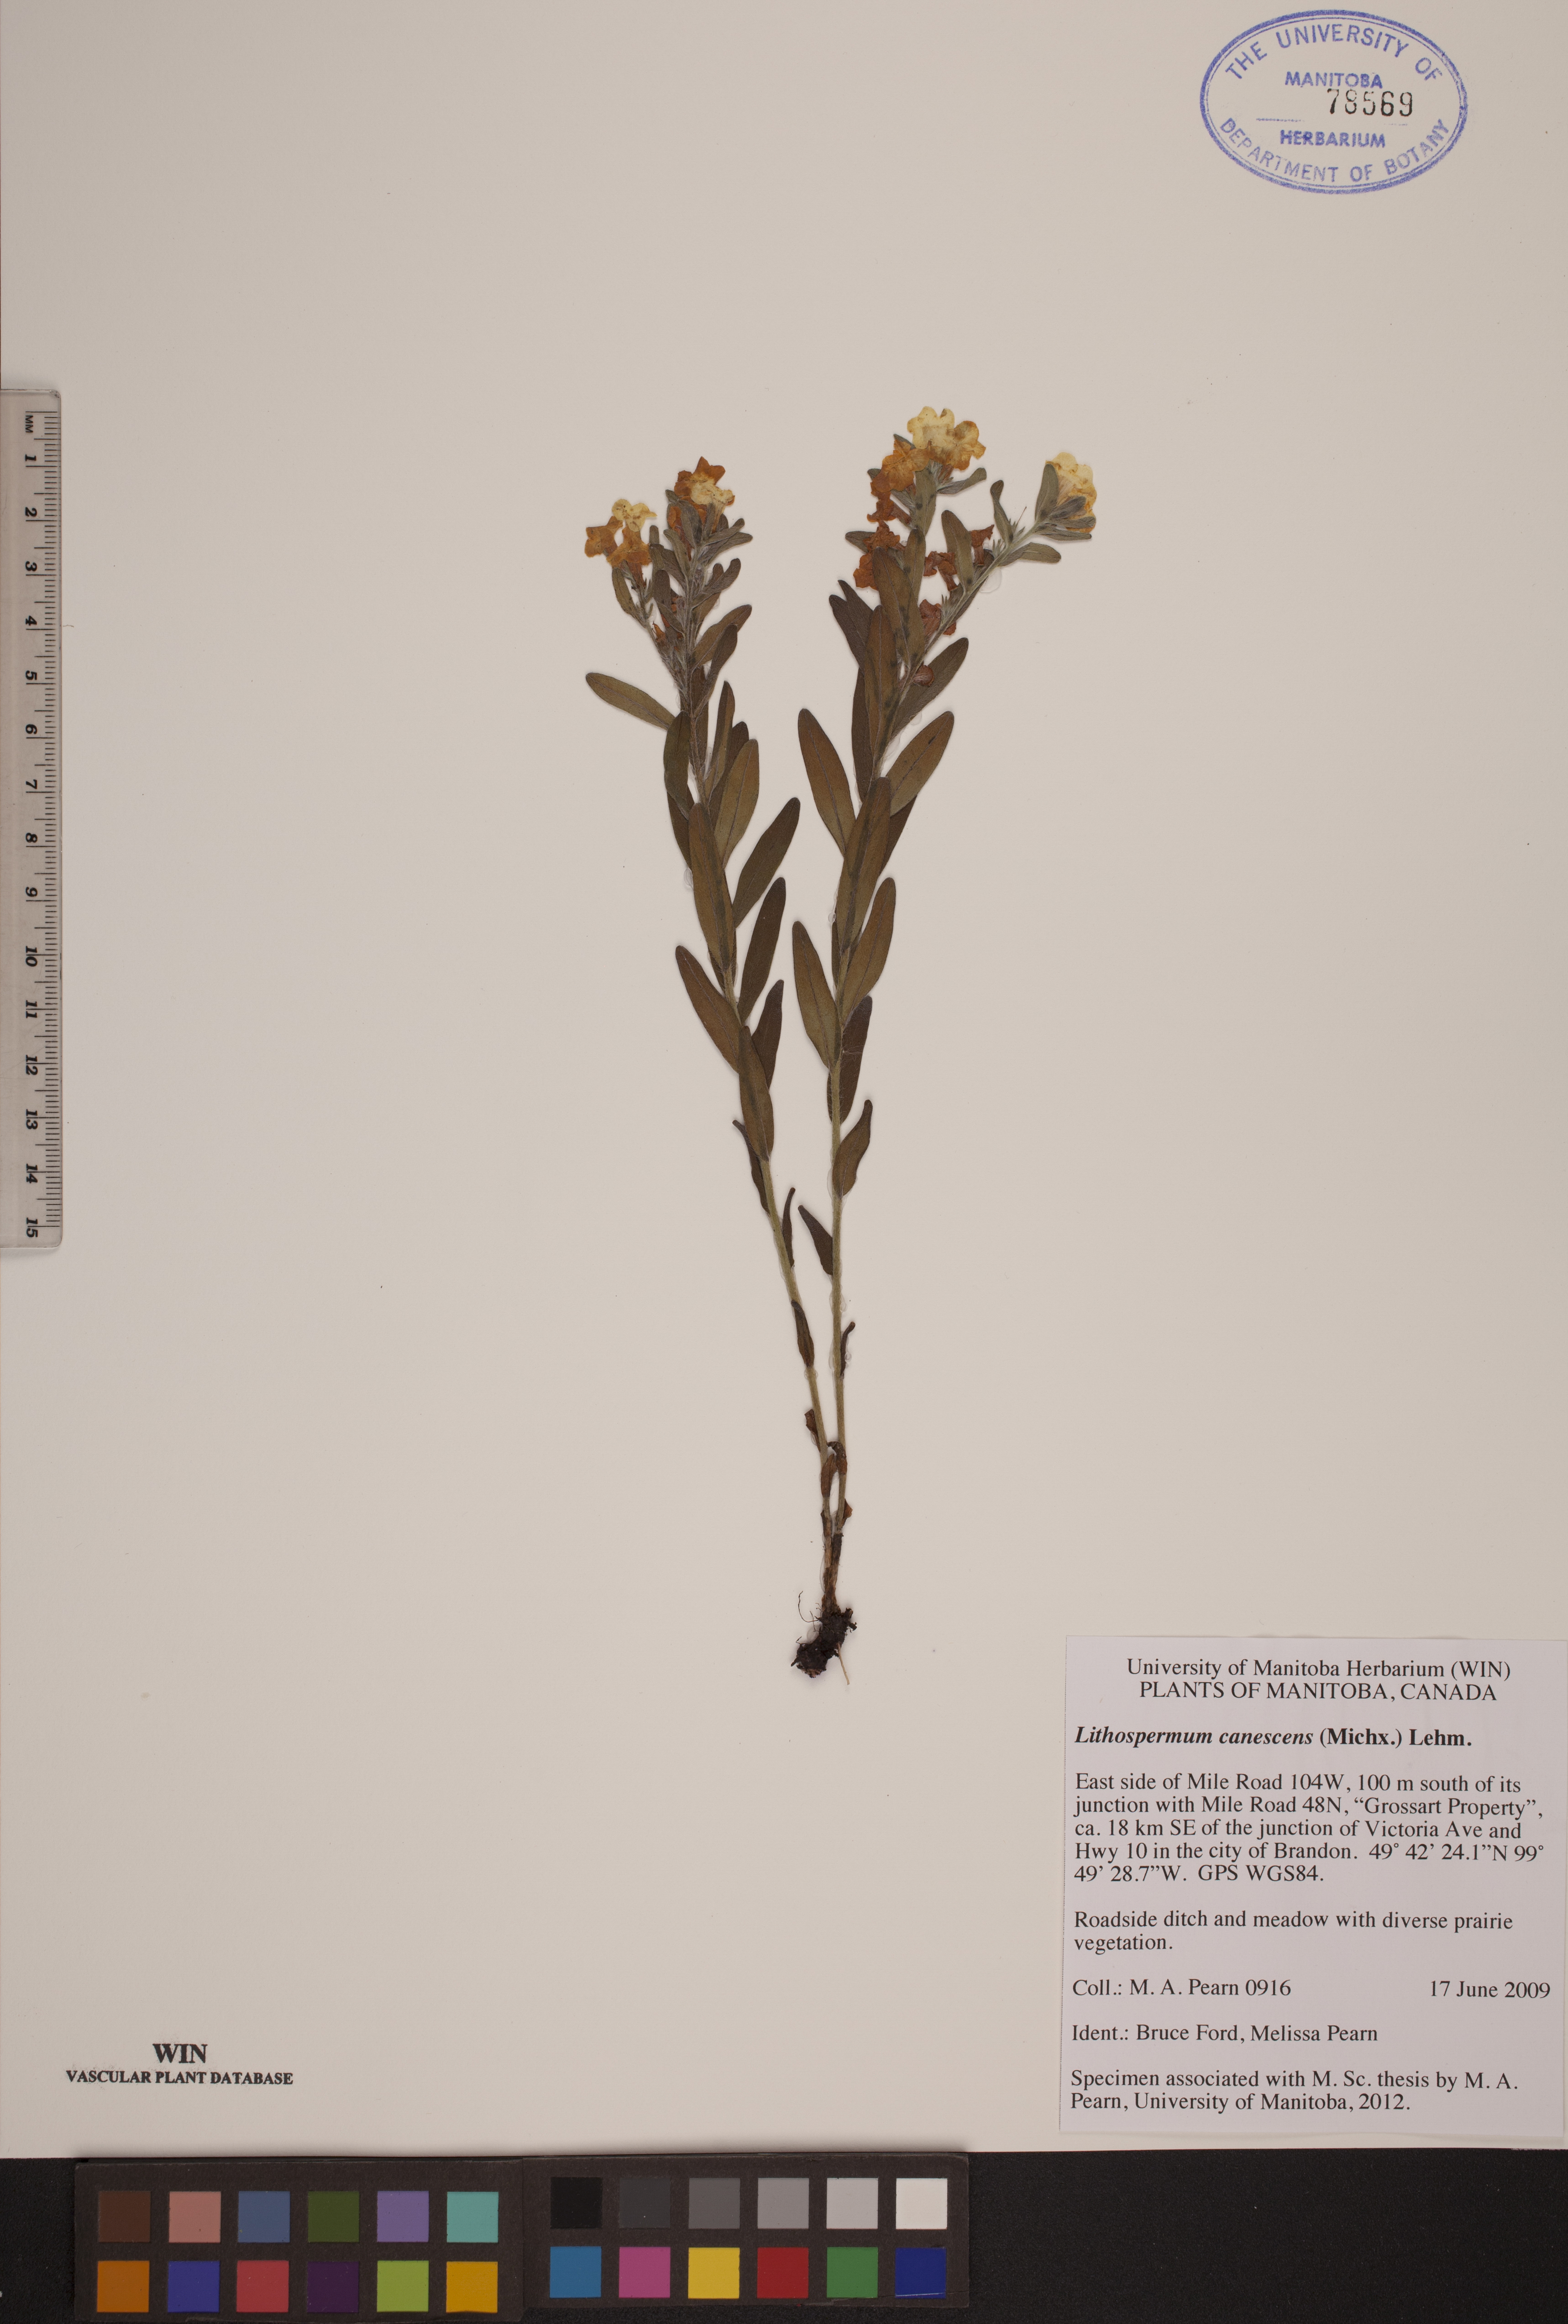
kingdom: Plantae
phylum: Tracheophyta
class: Magnoliopsida
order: Boraginales
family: Boraginaceae
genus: Lithospermum
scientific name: Lithospermum canescens
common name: Hoary puccoon
